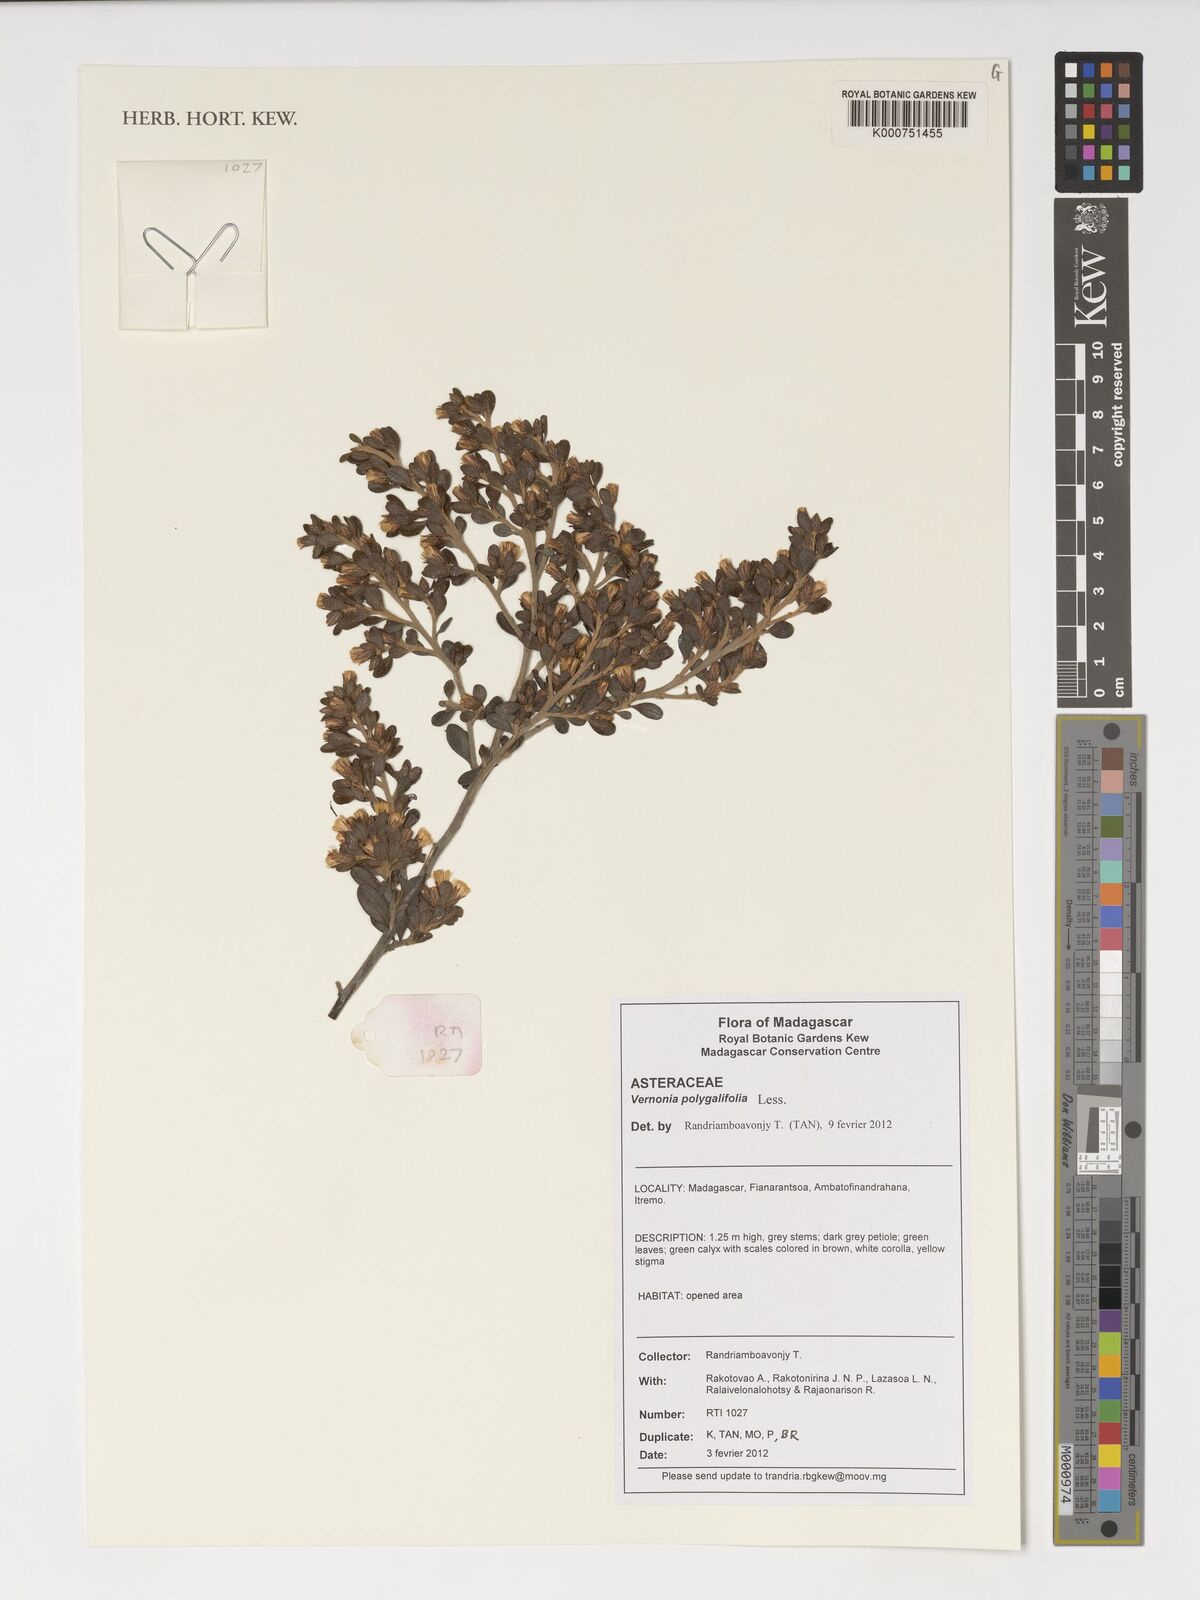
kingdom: Plantae
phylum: Tracheophyta
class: Magnoliopsida
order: Asterales
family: Asteraceae
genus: Pegolettia
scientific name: Pegolettia retrofracta
